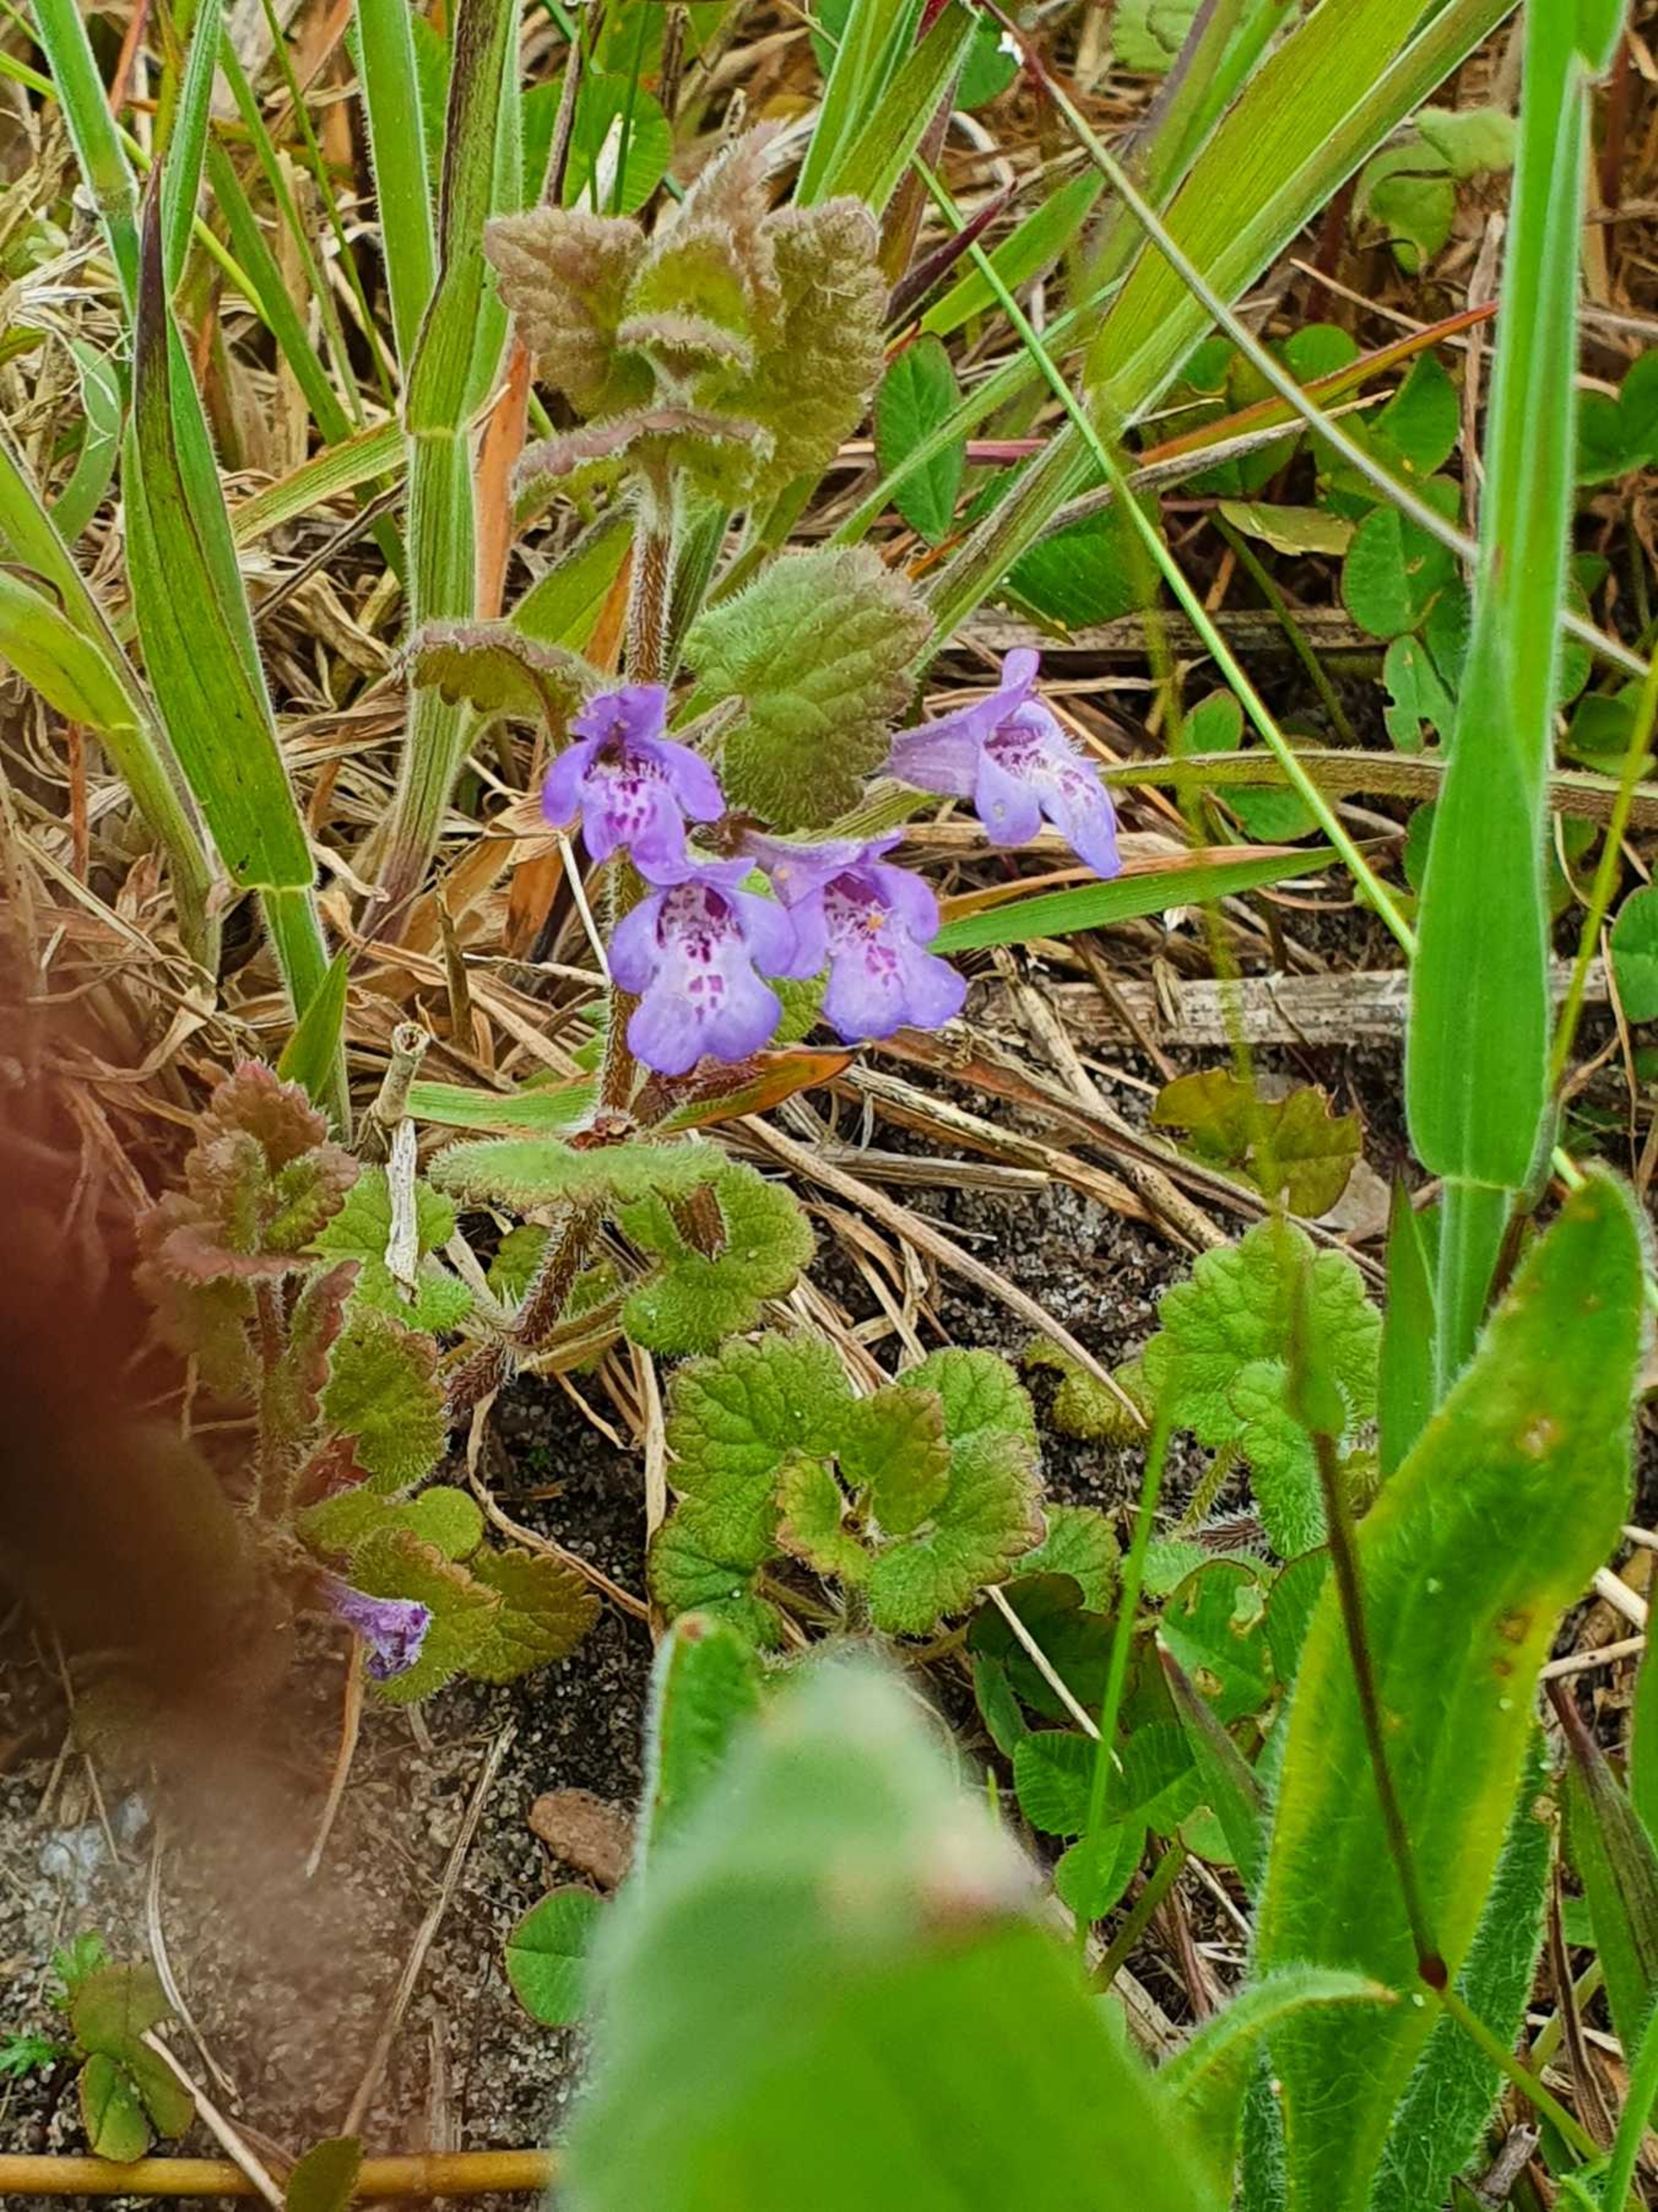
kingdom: Plantae
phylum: Tracheophyta
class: Magnoliopsida
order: Lamiales
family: Lamiaceae
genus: Glechoma
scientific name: Glechoma hederacea
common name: Korsknap
